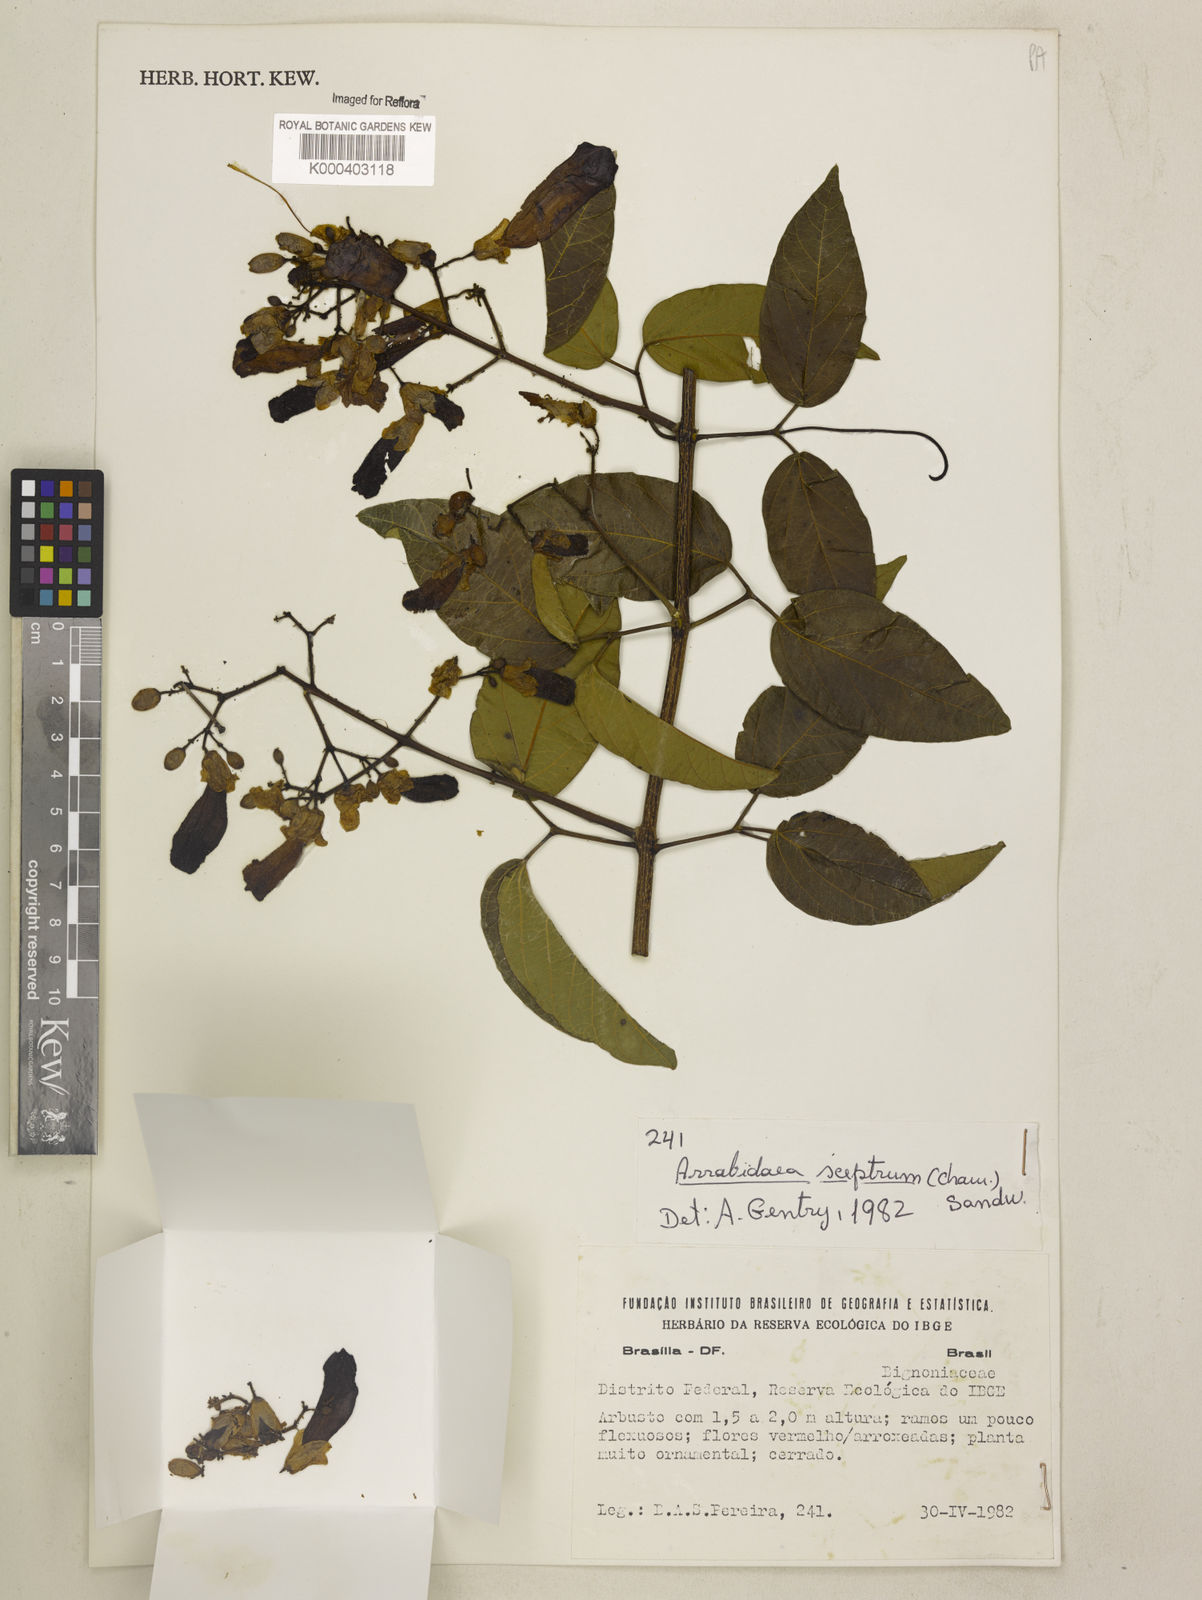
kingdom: Plantae
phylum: Tracheophyta
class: Magnoliopsida
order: Lamiales
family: Bignoniaceae
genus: Cuspidaria
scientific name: Cuspidaria sceptrum
